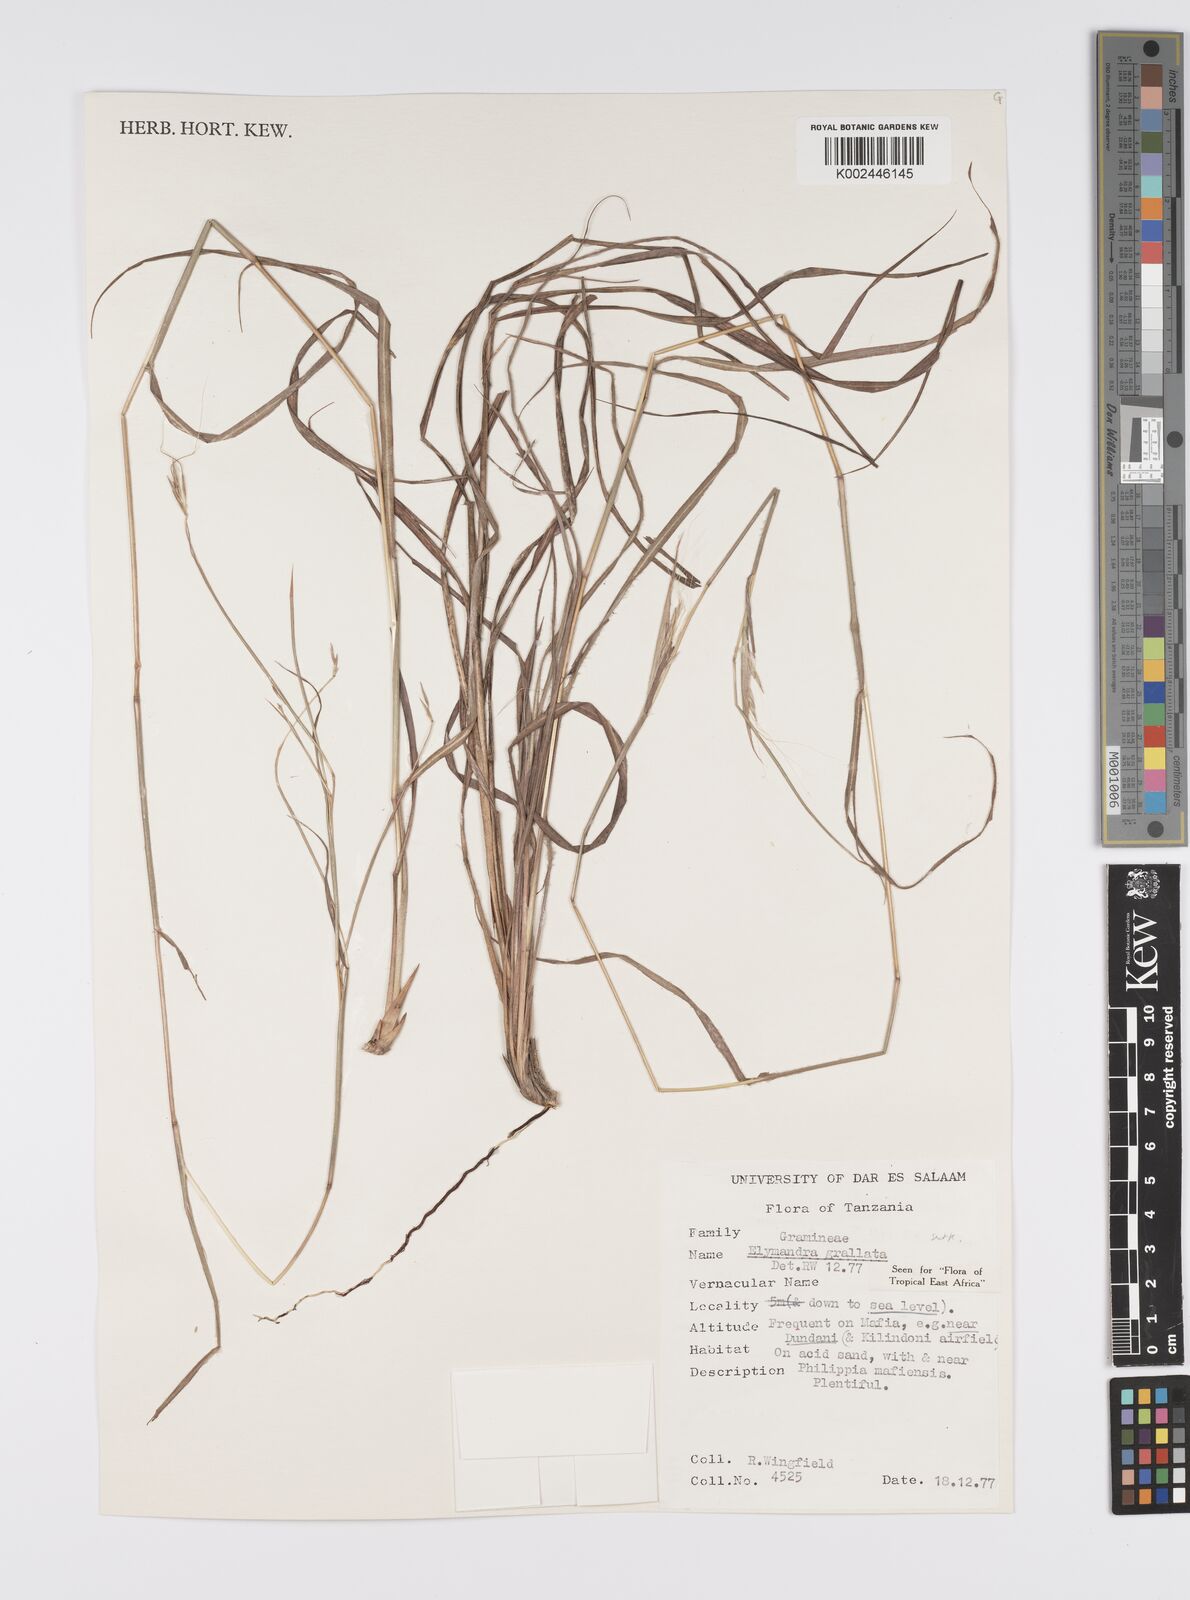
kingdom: Plantae
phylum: Tracheophyta
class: Liliopsida
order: Poales
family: Poaceae
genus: Elymandra
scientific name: Elymandra grallata
